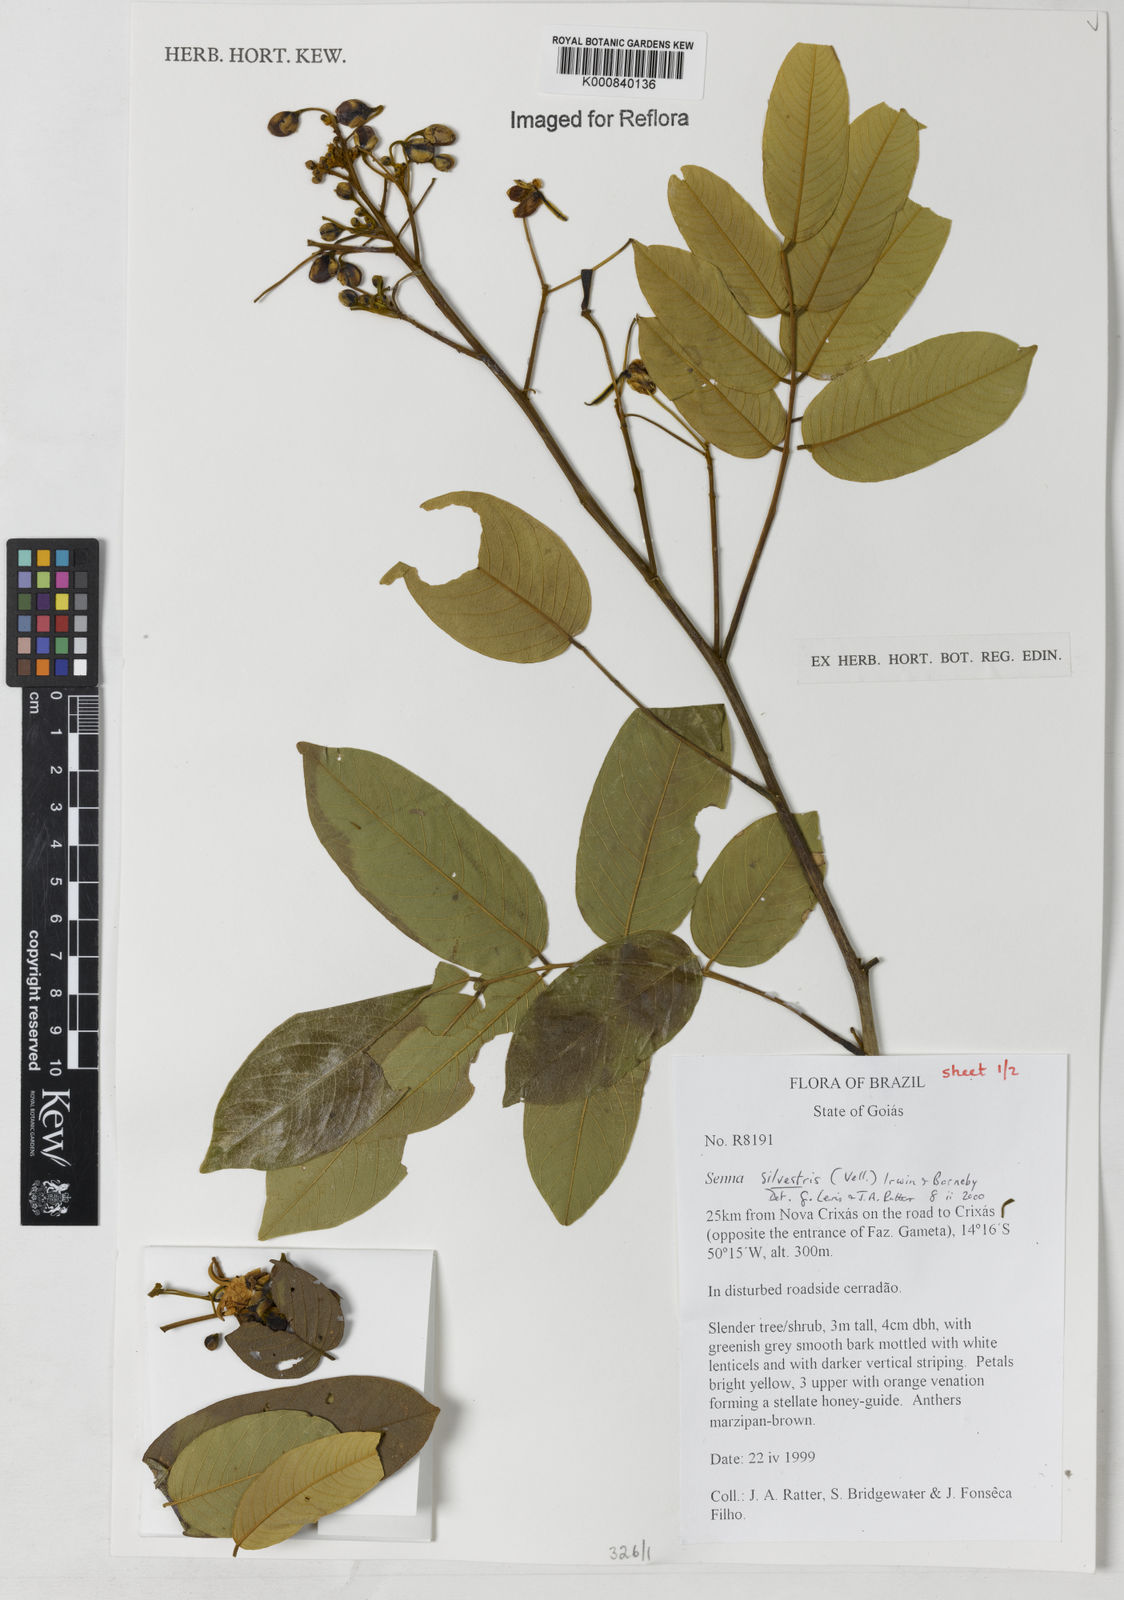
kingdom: Plantae
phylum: Tracheophyta
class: Magnoliopsida
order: Fabales
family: Fabaceae
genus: Senna
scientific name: Senna silvestris
